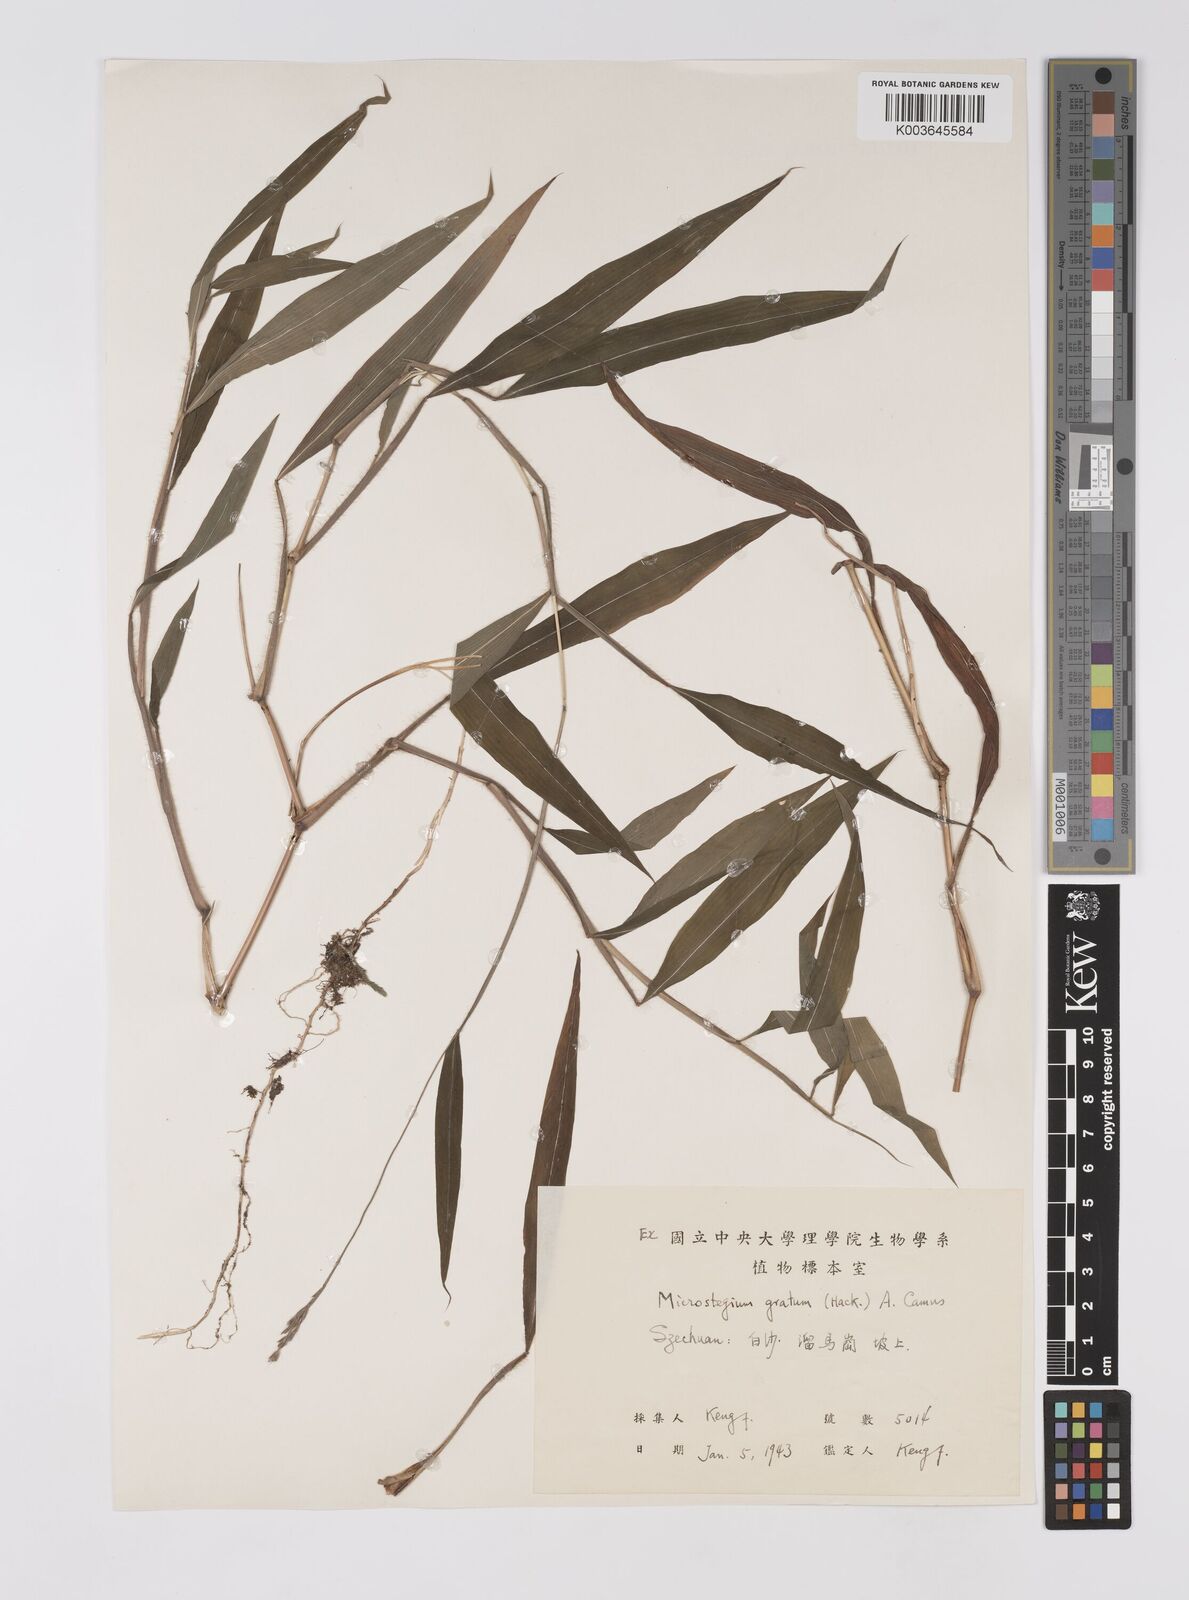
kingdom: Plantae
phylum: Tracheophyta
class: Liliopsida
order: Poales
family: Poaceae
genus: Microstegium
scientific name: Microstegium fasciculatum
